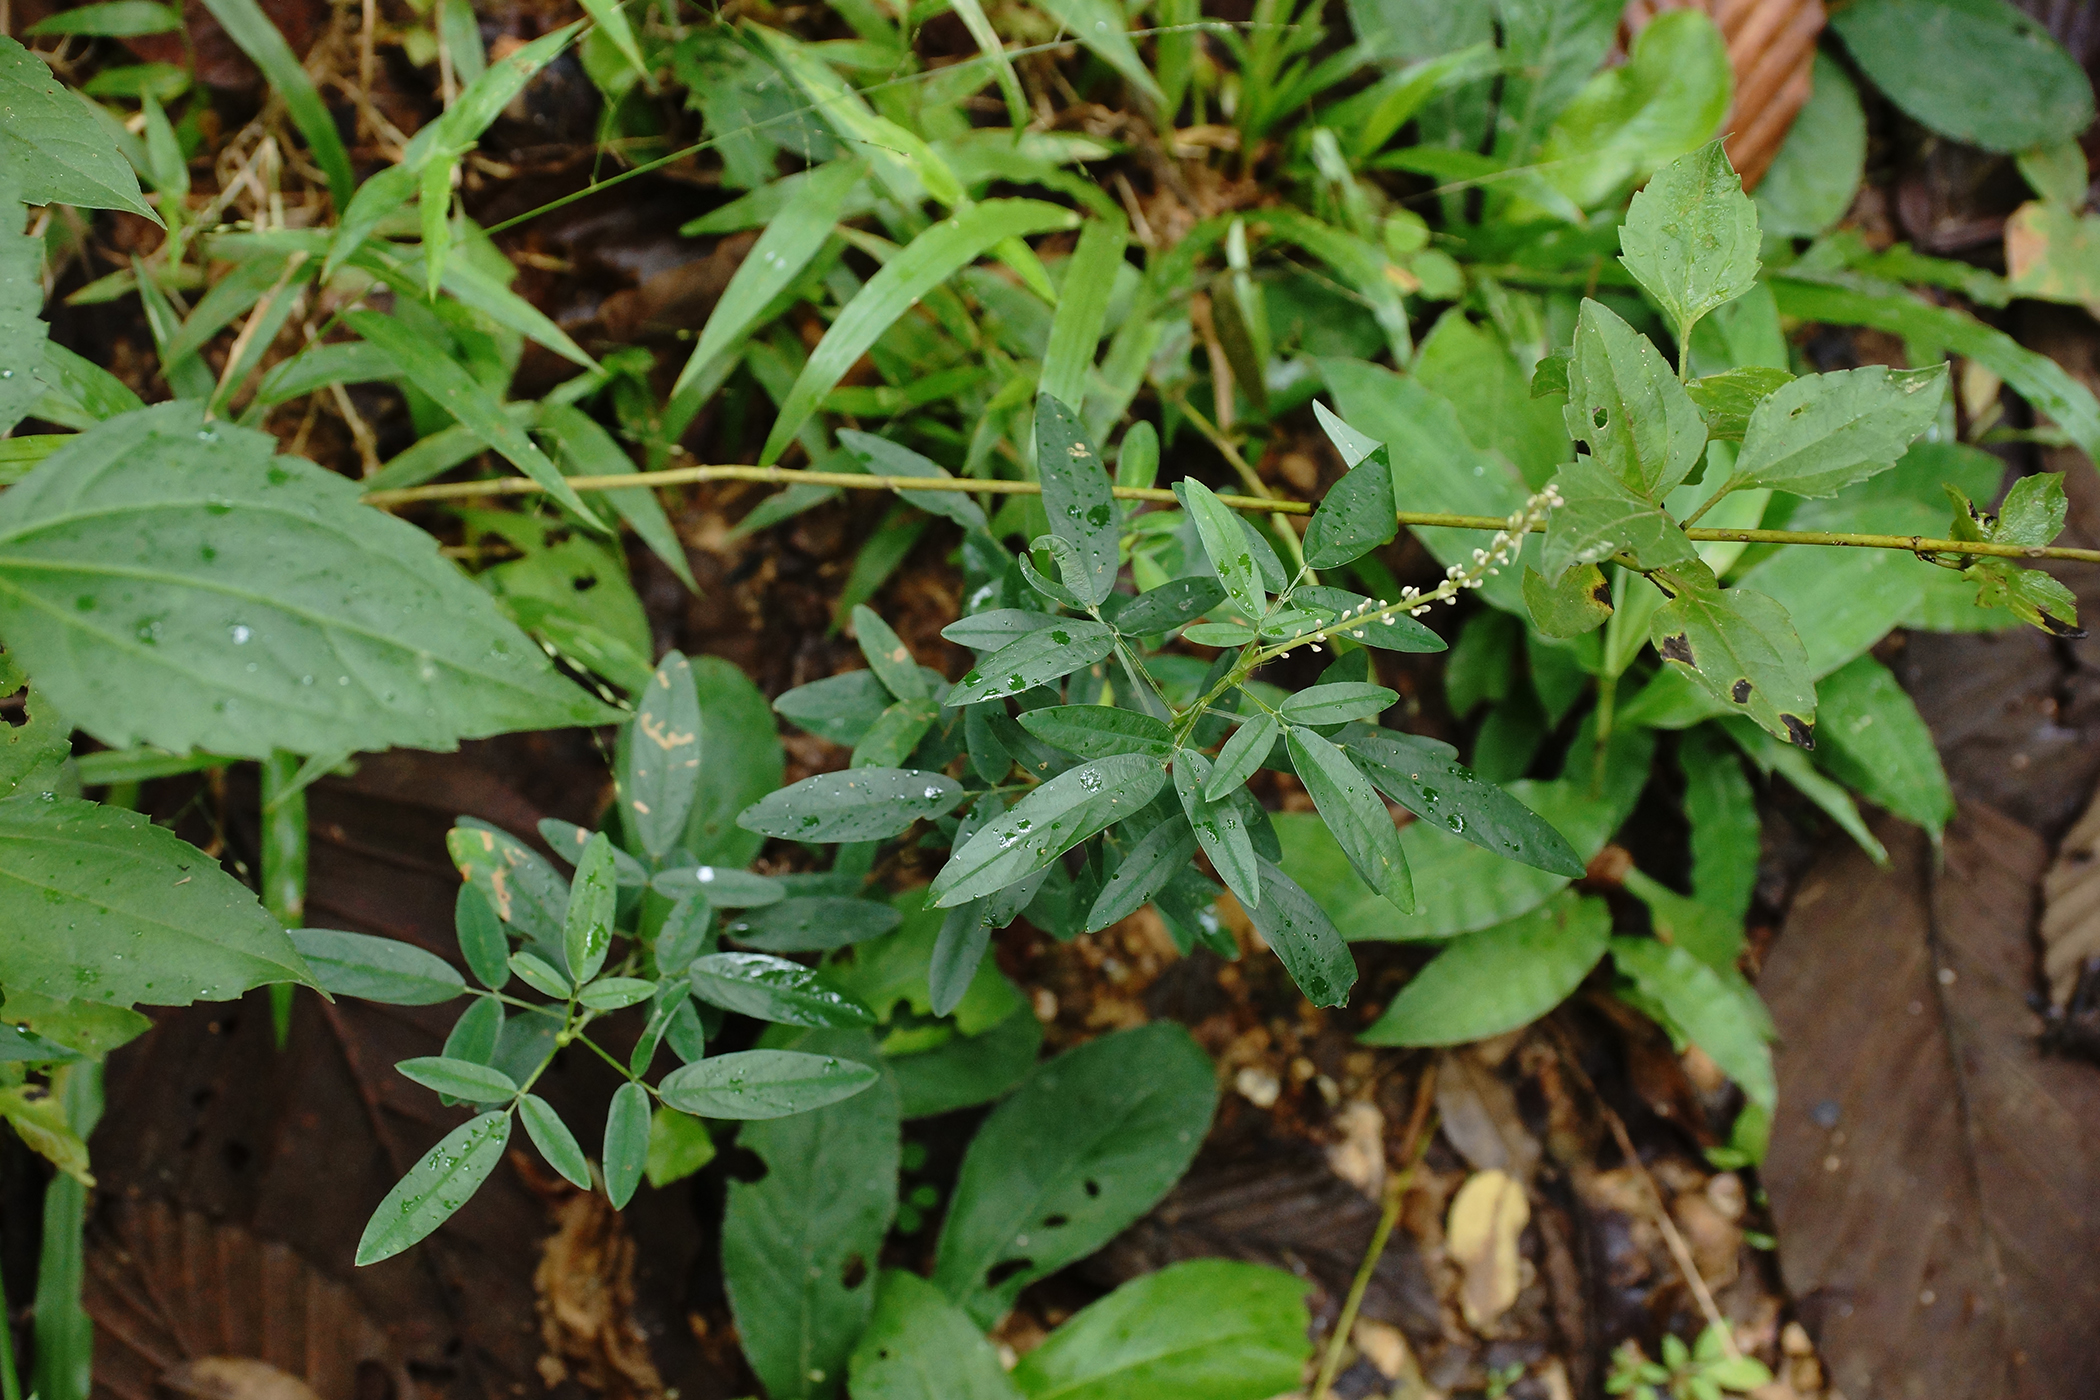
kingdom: Plantae
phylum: Tracheophyta
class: Magnoliopsida
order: Fabales
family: Fabaceae
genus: Grona
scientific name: Grona reticulata
